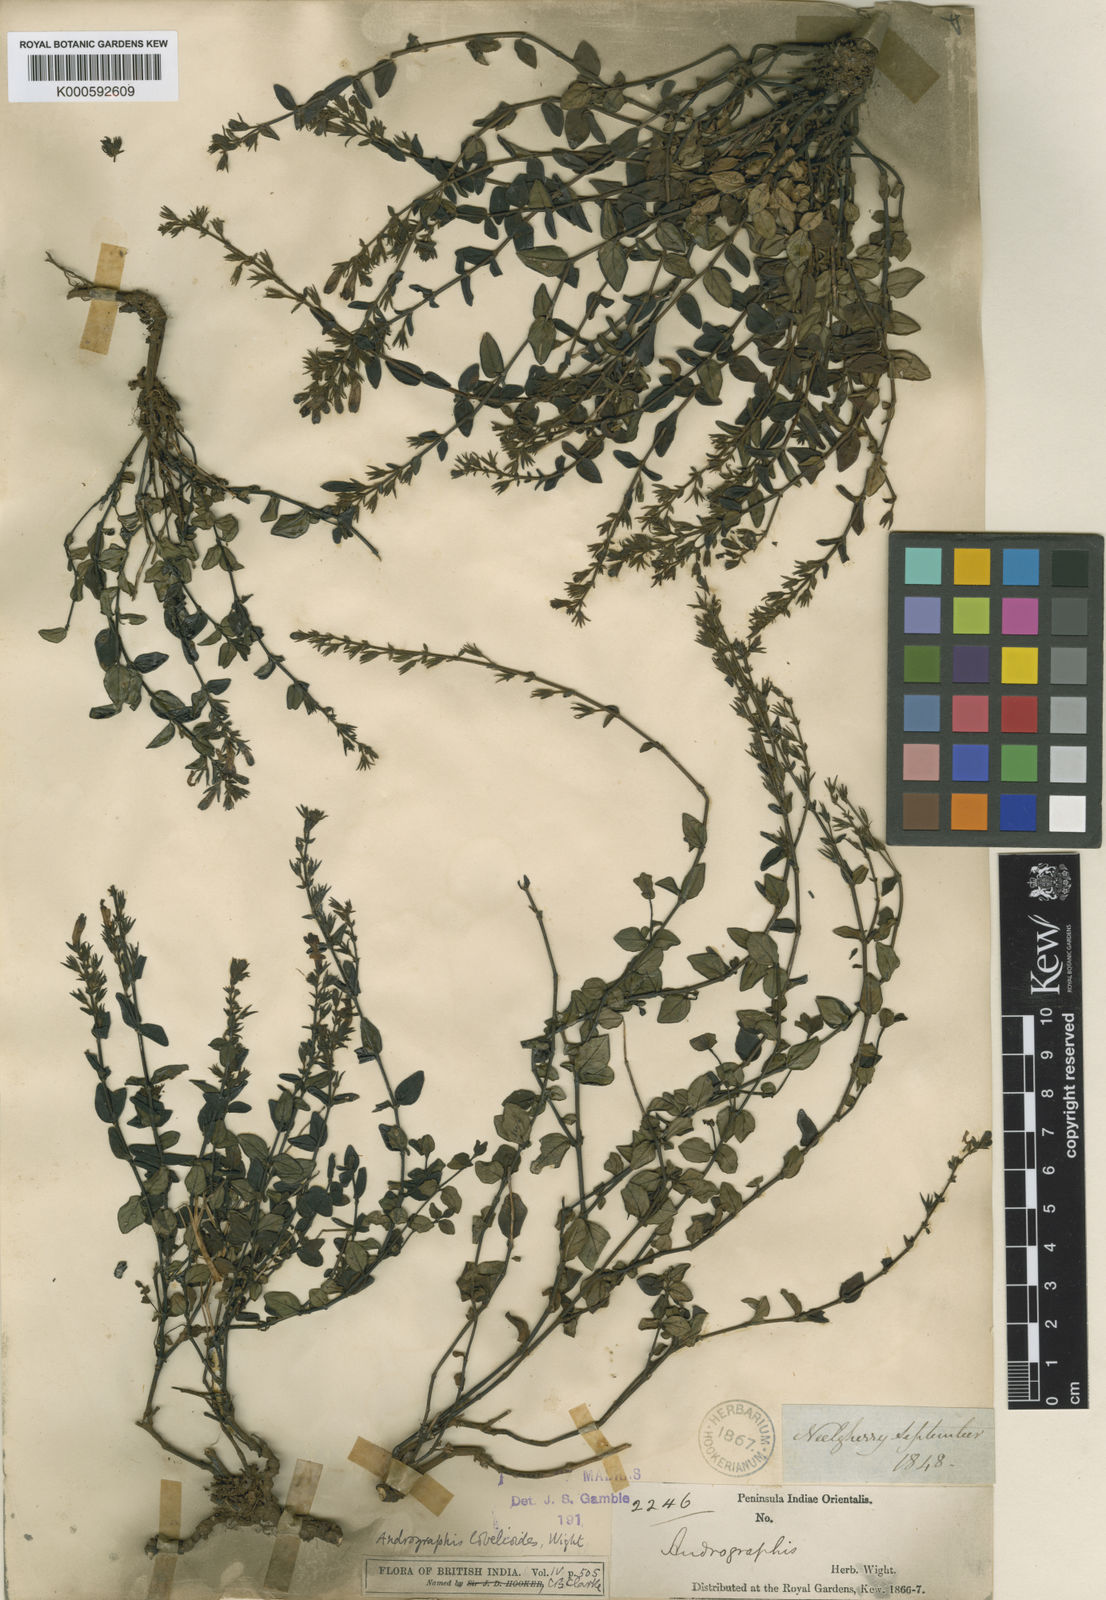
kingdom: Plantae
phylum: Tracheophyta
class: Magnoliopsida
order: Lamiales
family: Acanthaceae
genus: Andrographis
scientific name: Andrographis lobelioides
